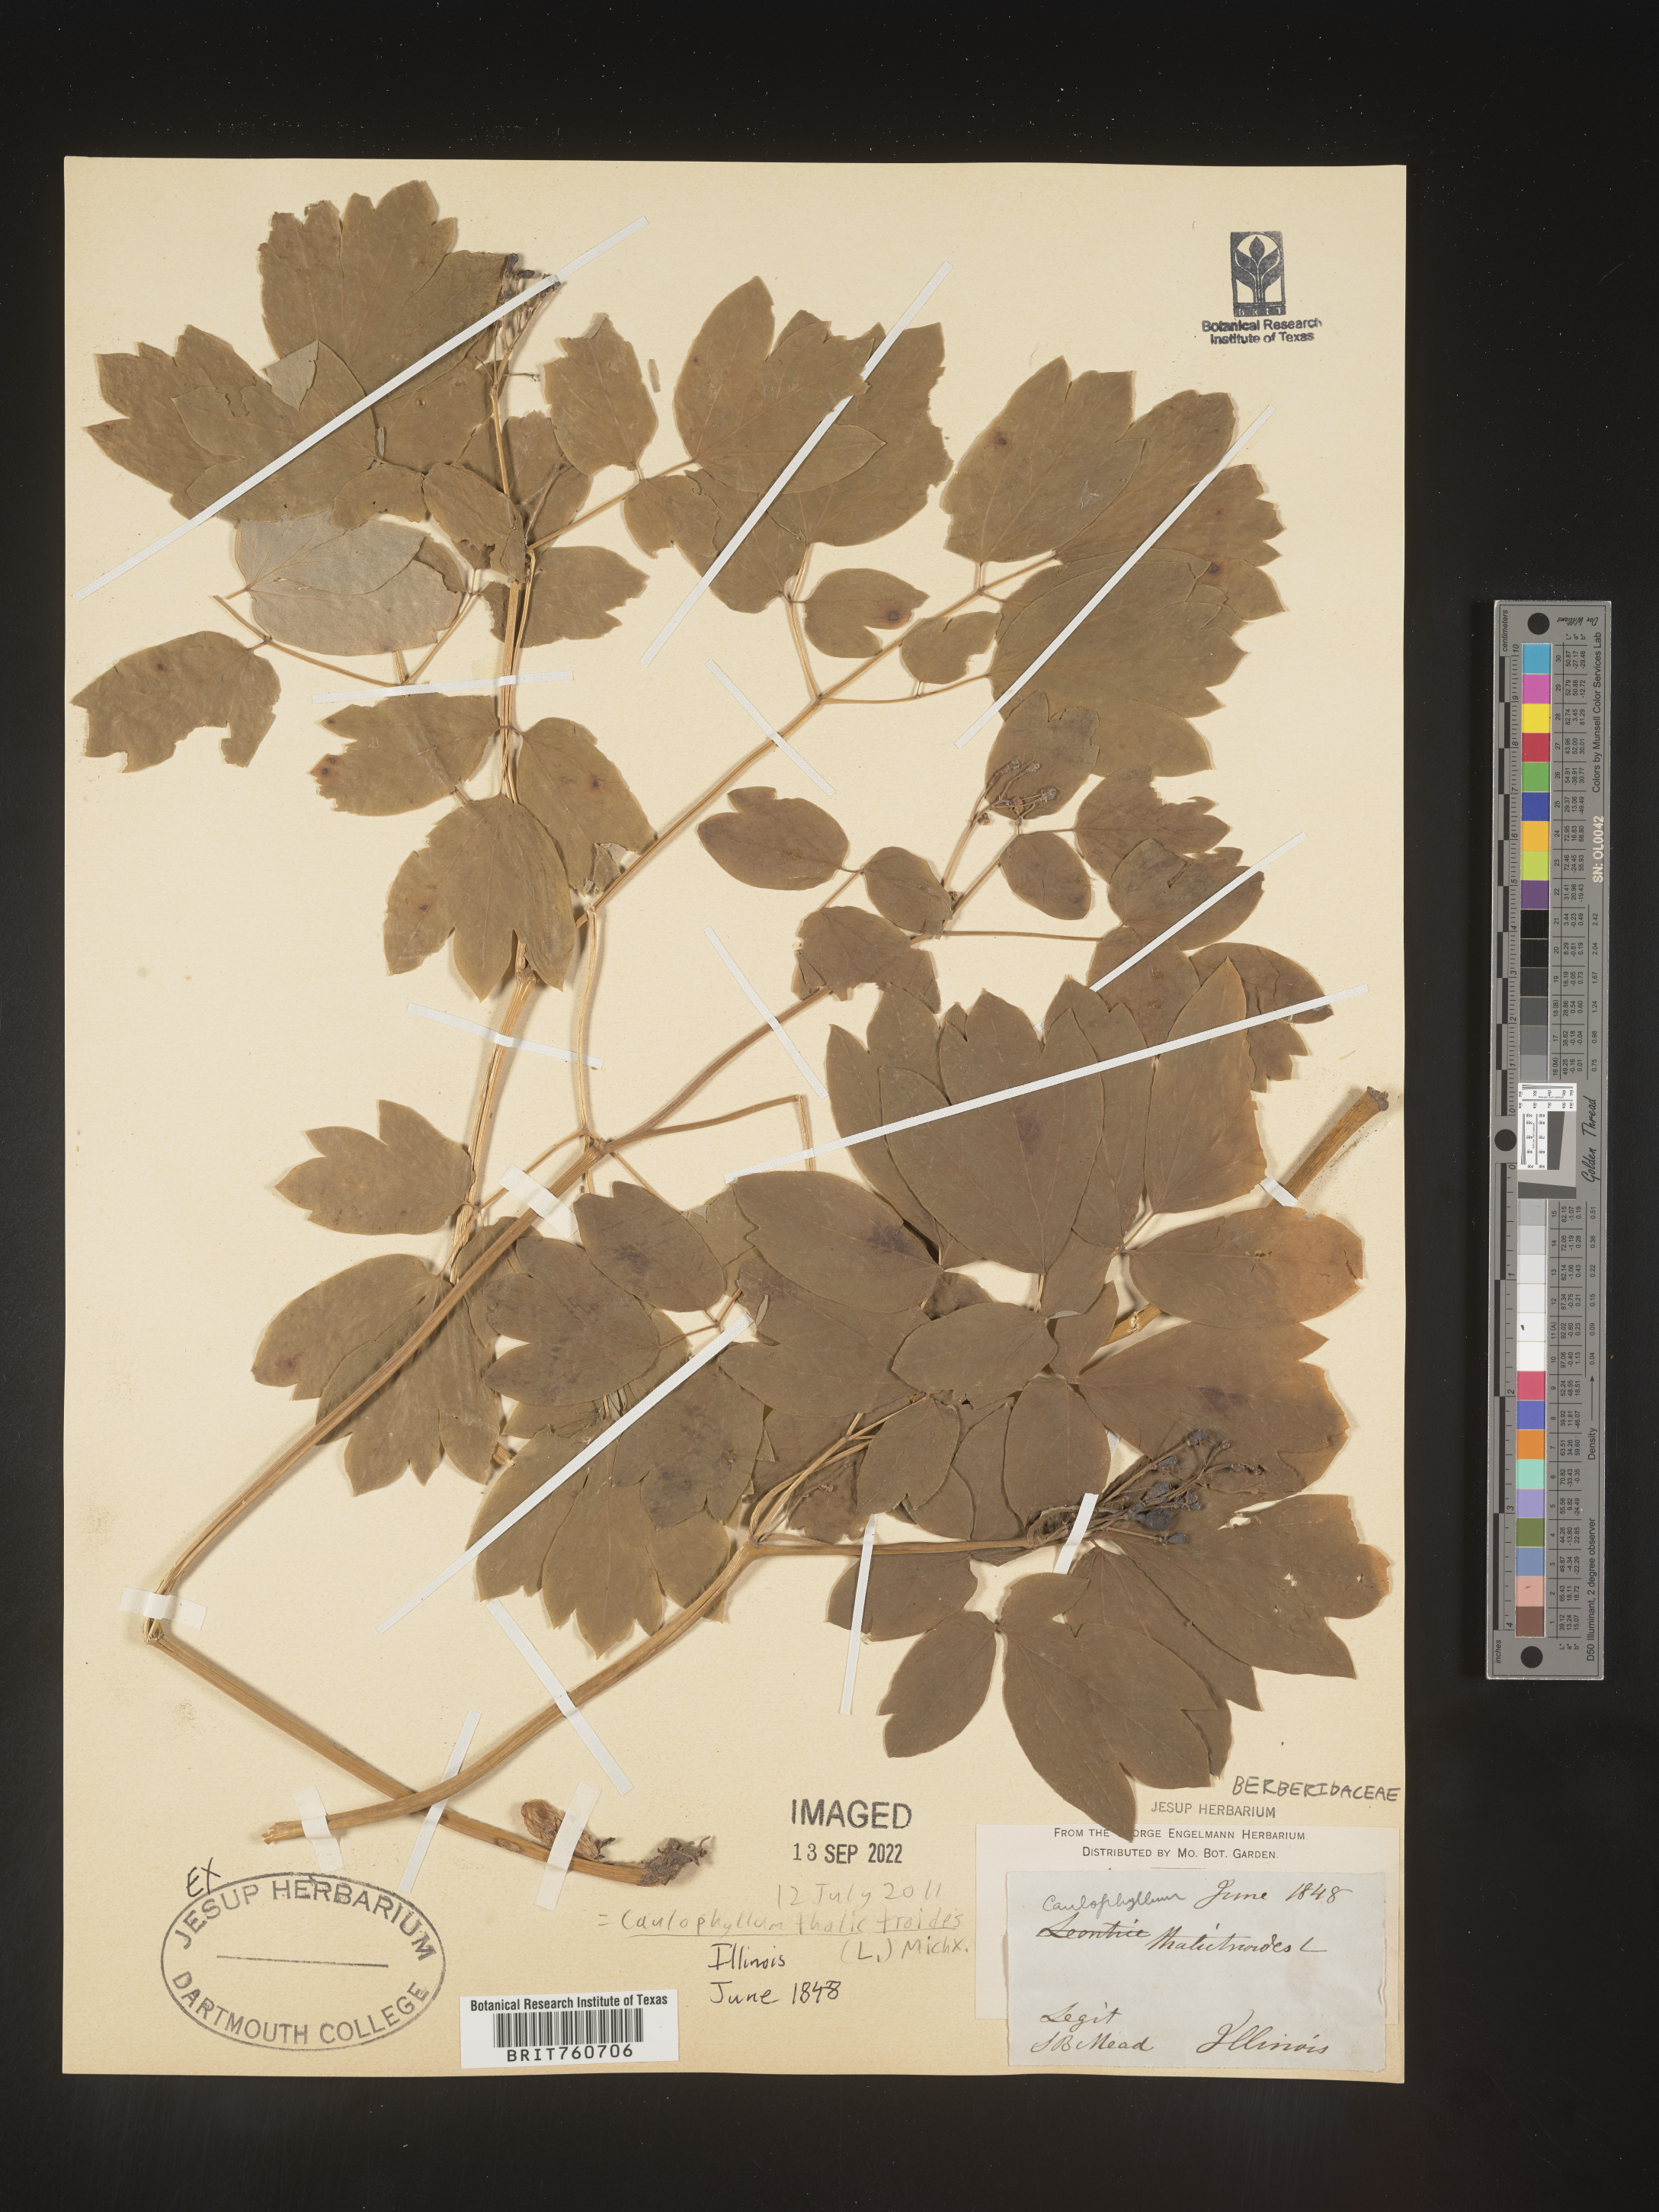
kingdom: Plantae
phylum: Tracheophyta
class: Magnoliopsida
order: Ranunculales
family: Berberidaceae
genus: Caulophyllum
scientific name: Caulophyllum thalictroides
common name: Blue cohosh
